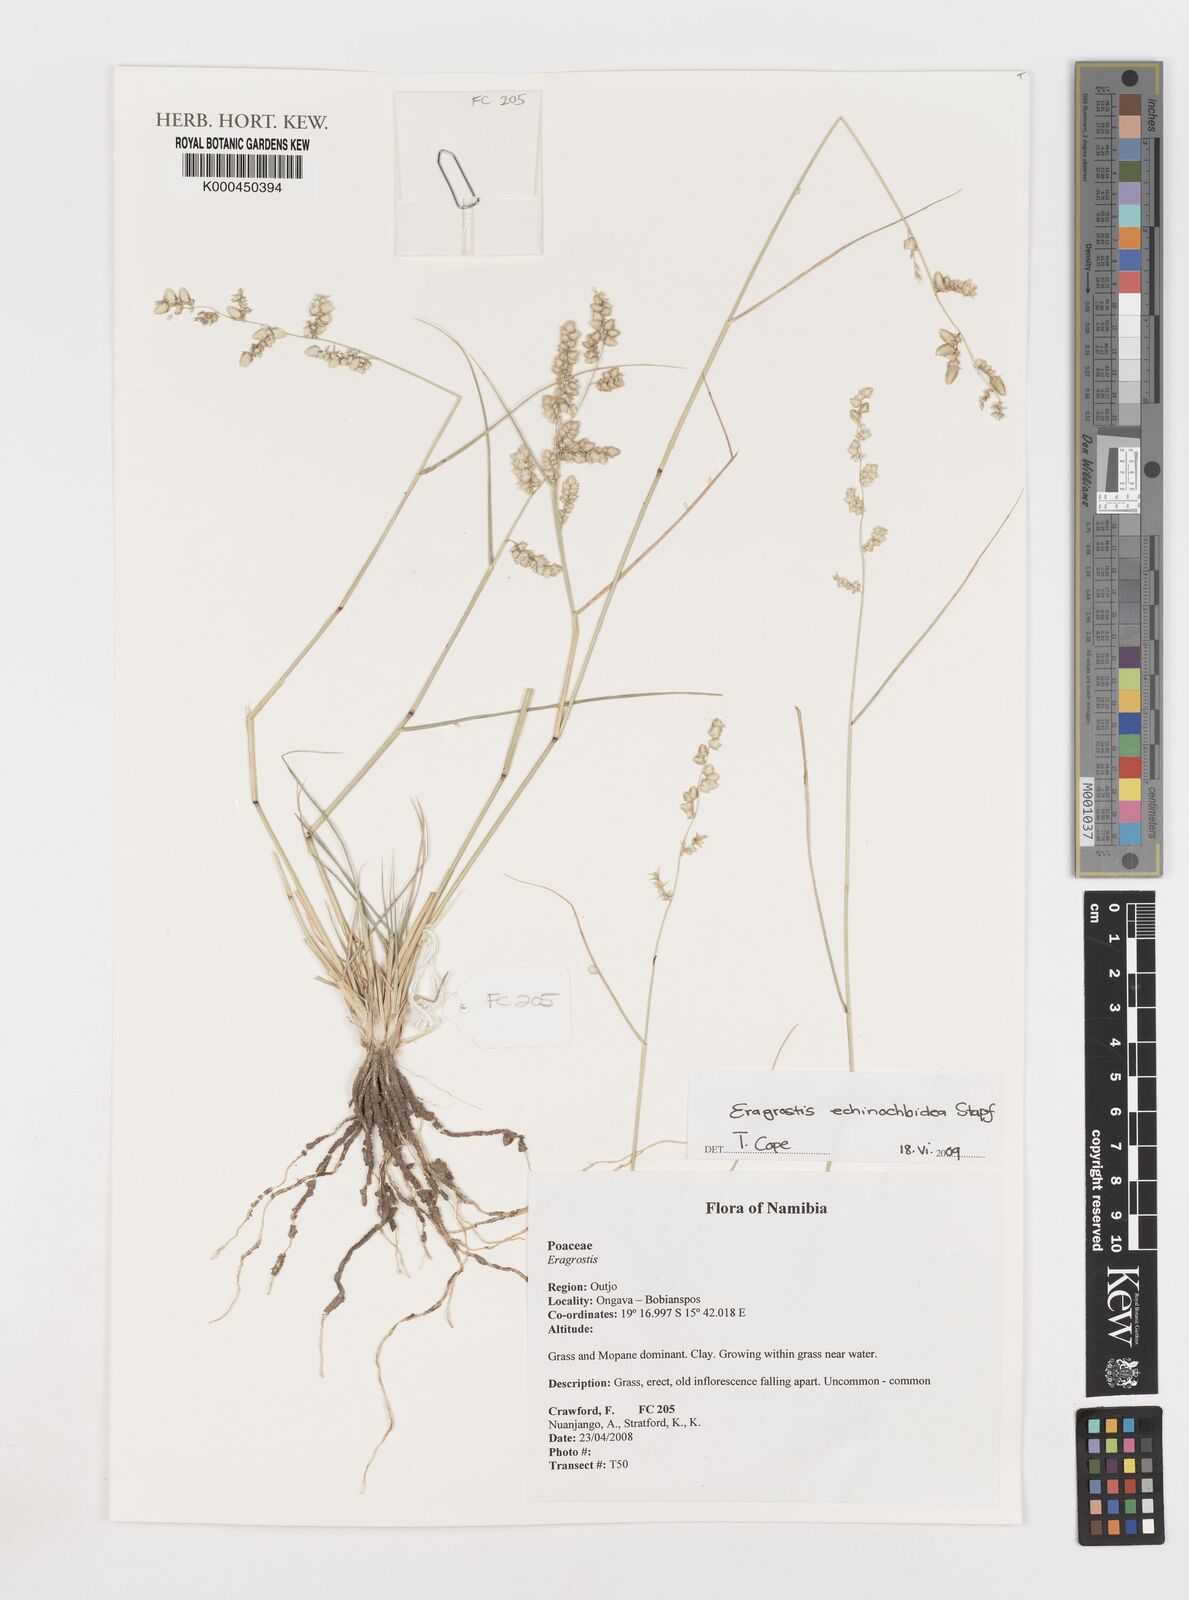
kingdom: Plantae
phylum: Tracheophyta
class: Liliopsida
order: Poales
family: Poaceae
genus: Eragrostis
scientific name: Eragrostis
